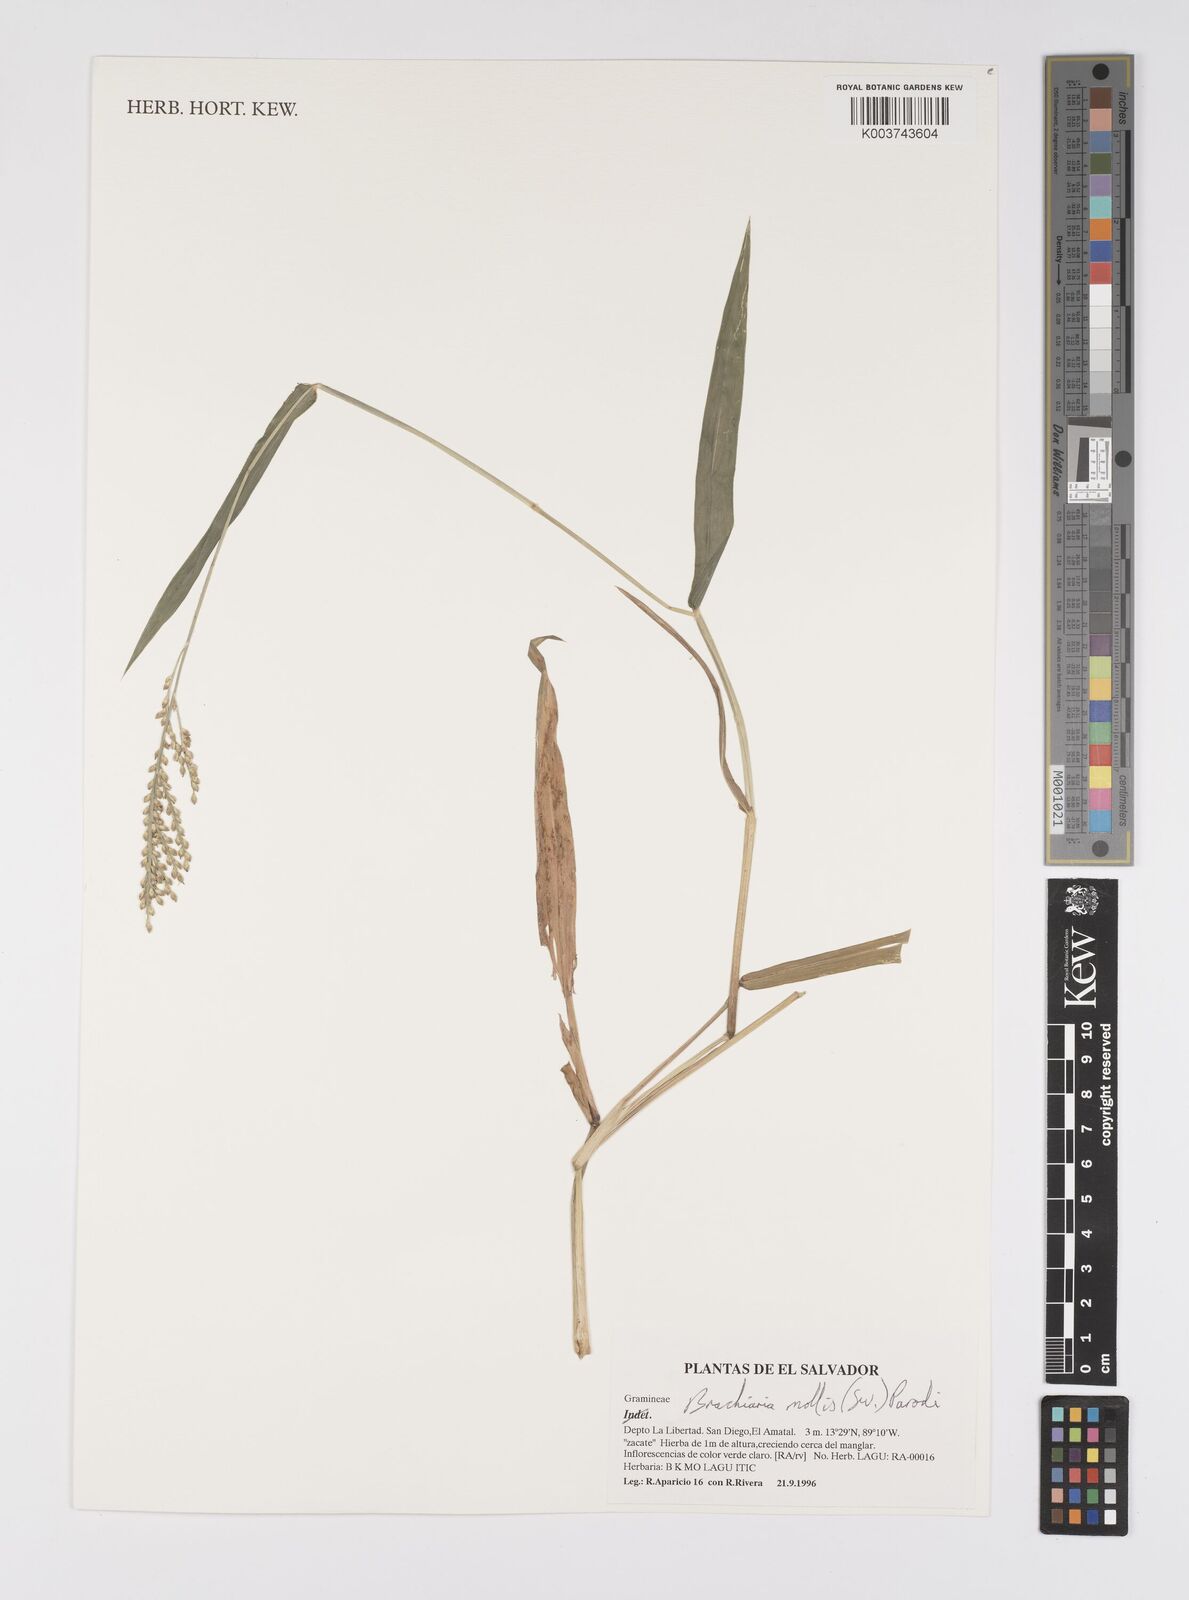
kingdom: Plantae
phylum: Tracheophyta
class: Liliopsida
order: Poales
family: Poaceae
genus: Urochloa
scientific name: Urochloa mollis
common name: Grass
